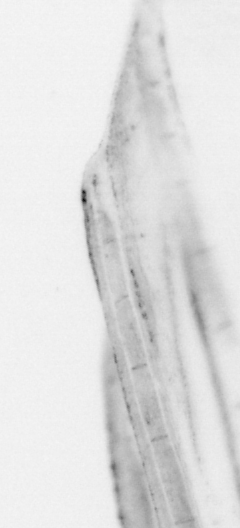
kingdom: Animalia
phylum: Chordata
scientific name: Chordata
